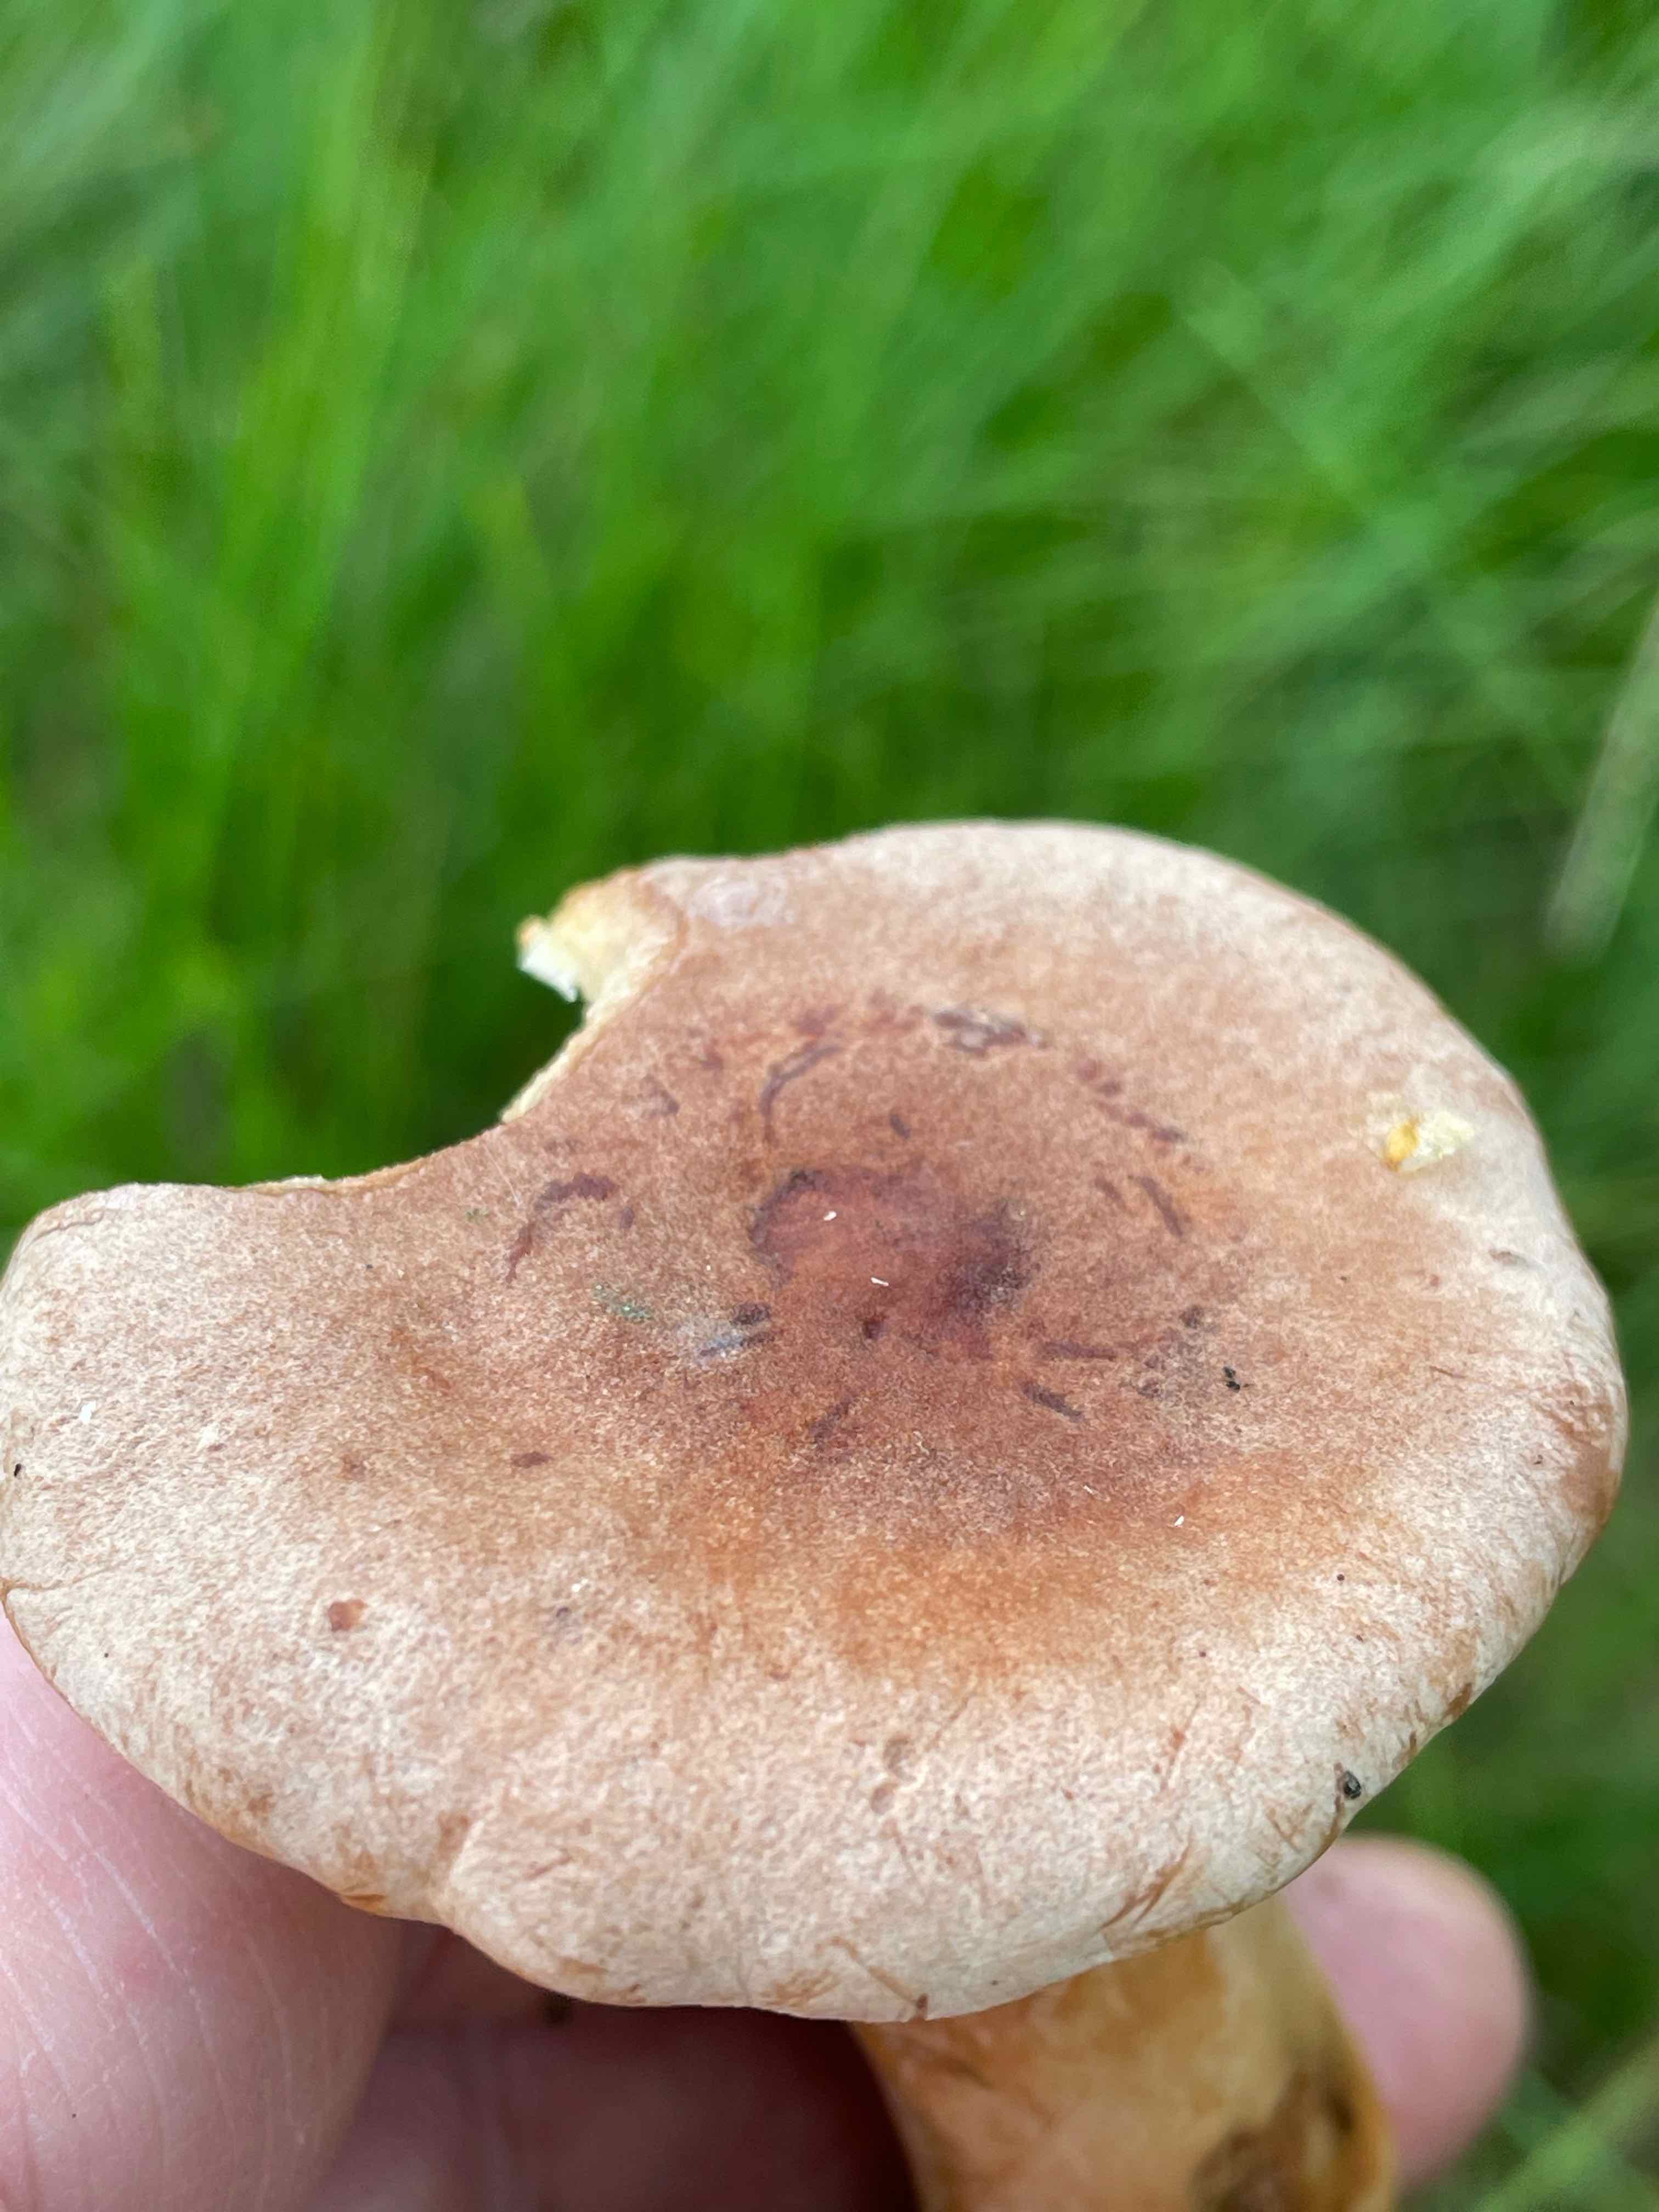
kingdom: Fungi
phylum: Basidiomycota
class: Agaricomycetes
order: Russulales
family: Russulaceae
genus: Lactarius
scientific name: Lactarius helvus
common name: mose-mælkehat
